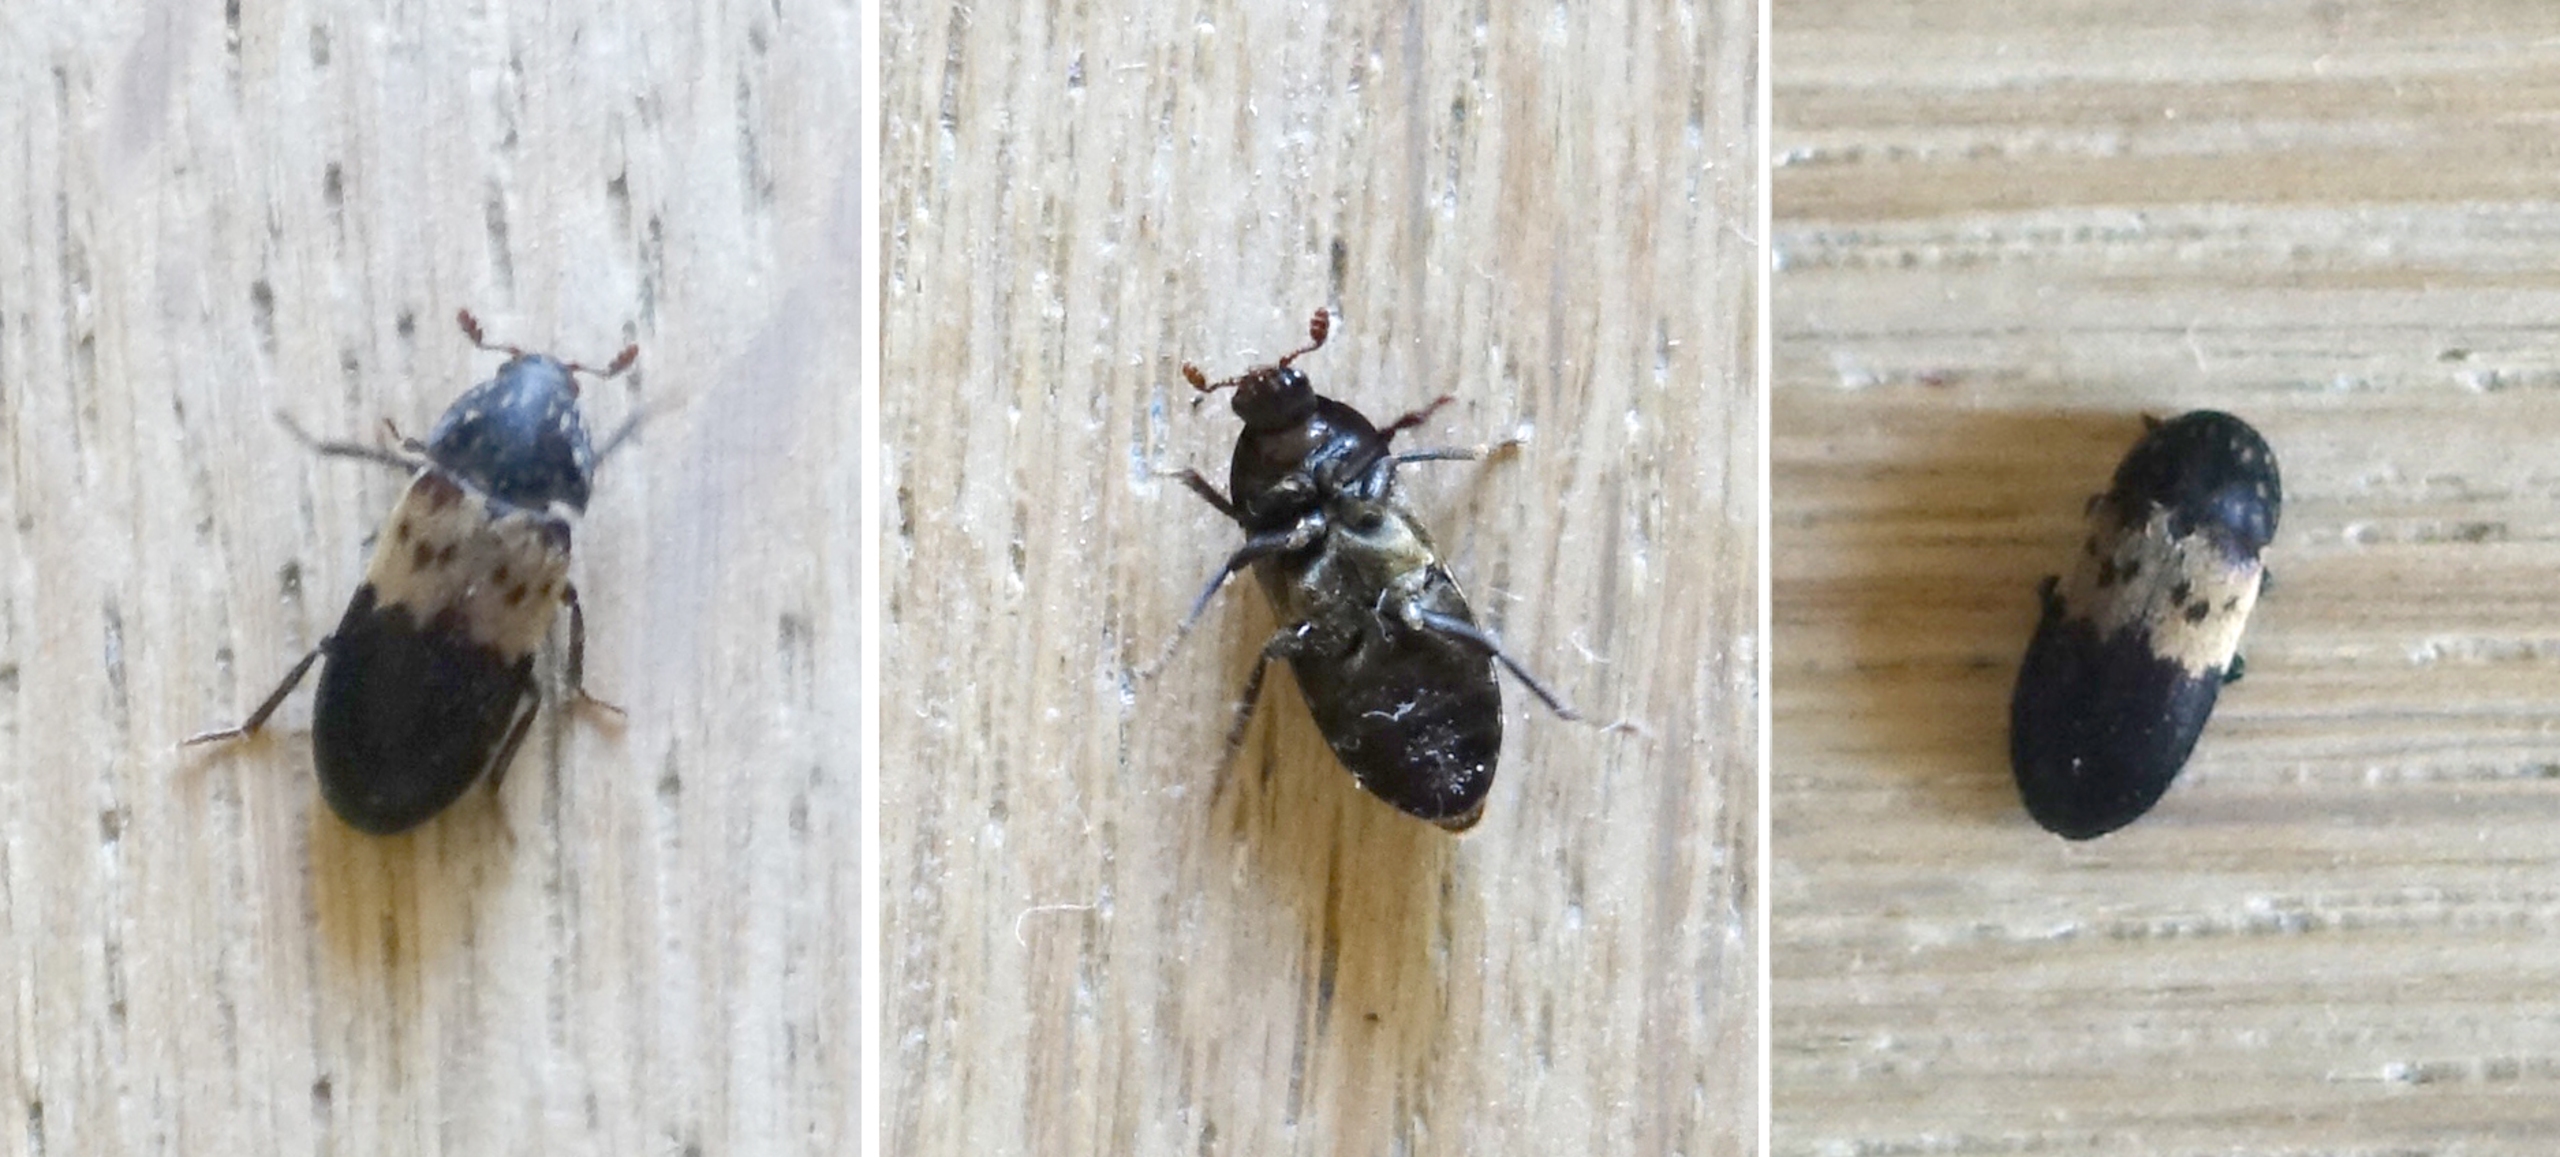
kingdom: Animalia
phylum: Arthropoda
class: Insecta
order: Coleoptera
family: Dermestidae
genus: Dermestes
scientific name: Dermestes lardarius
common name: Flæskeklanner
